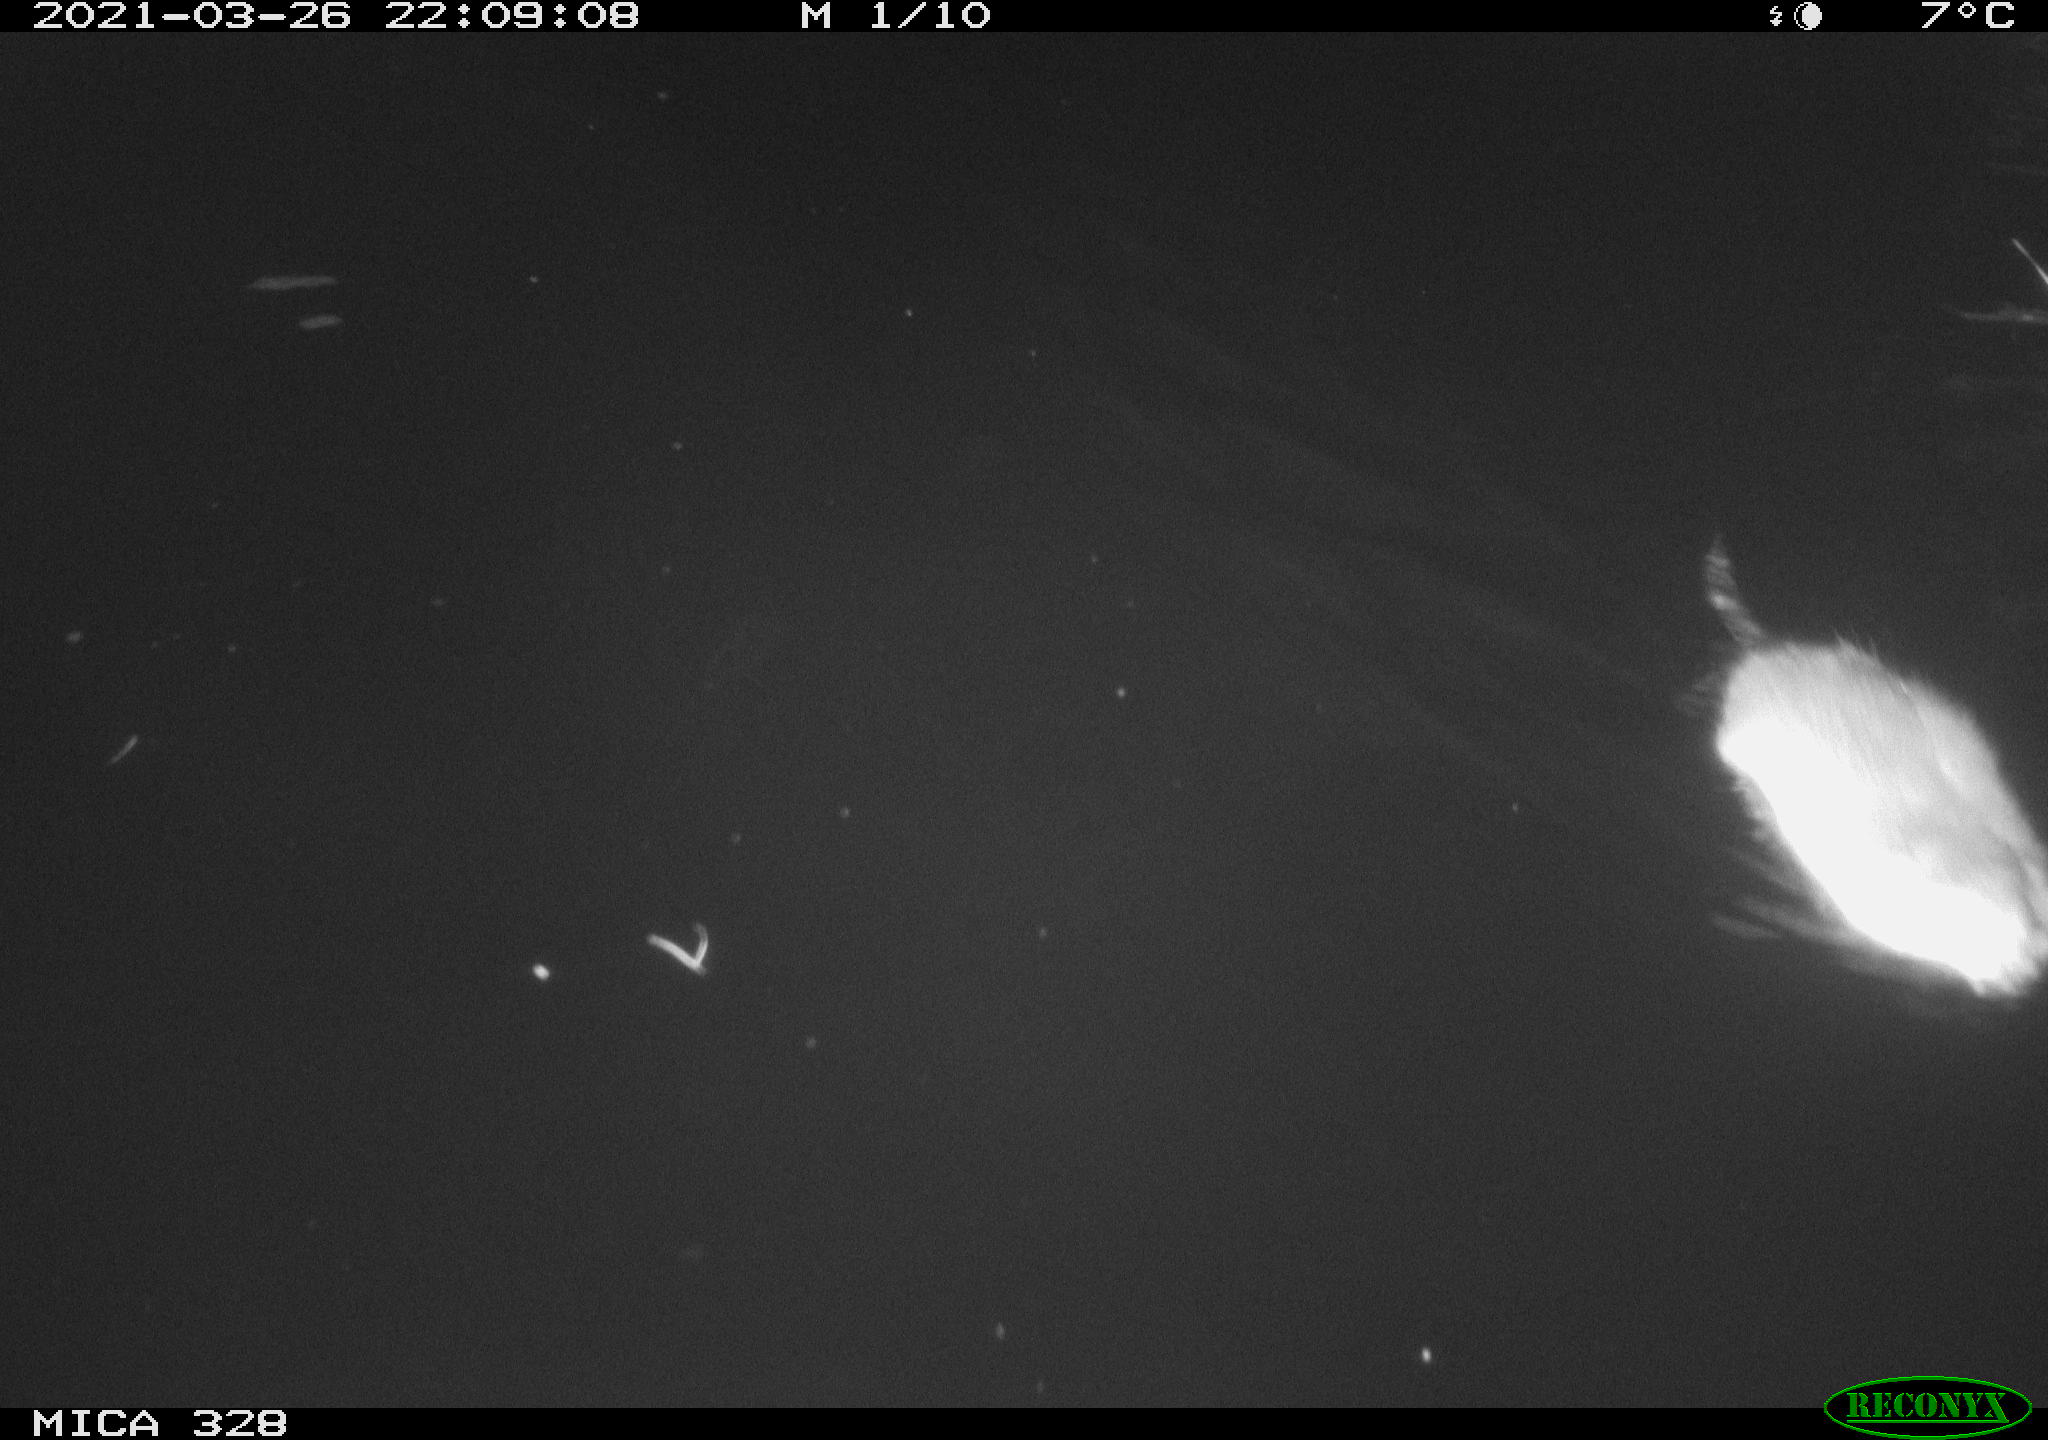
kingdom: Animalia
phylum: Chordata
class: Mammalia
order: Rodentia
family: Cricetidae
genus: Ondatra
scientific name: Ondatra zibethicus
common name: Muskrat
